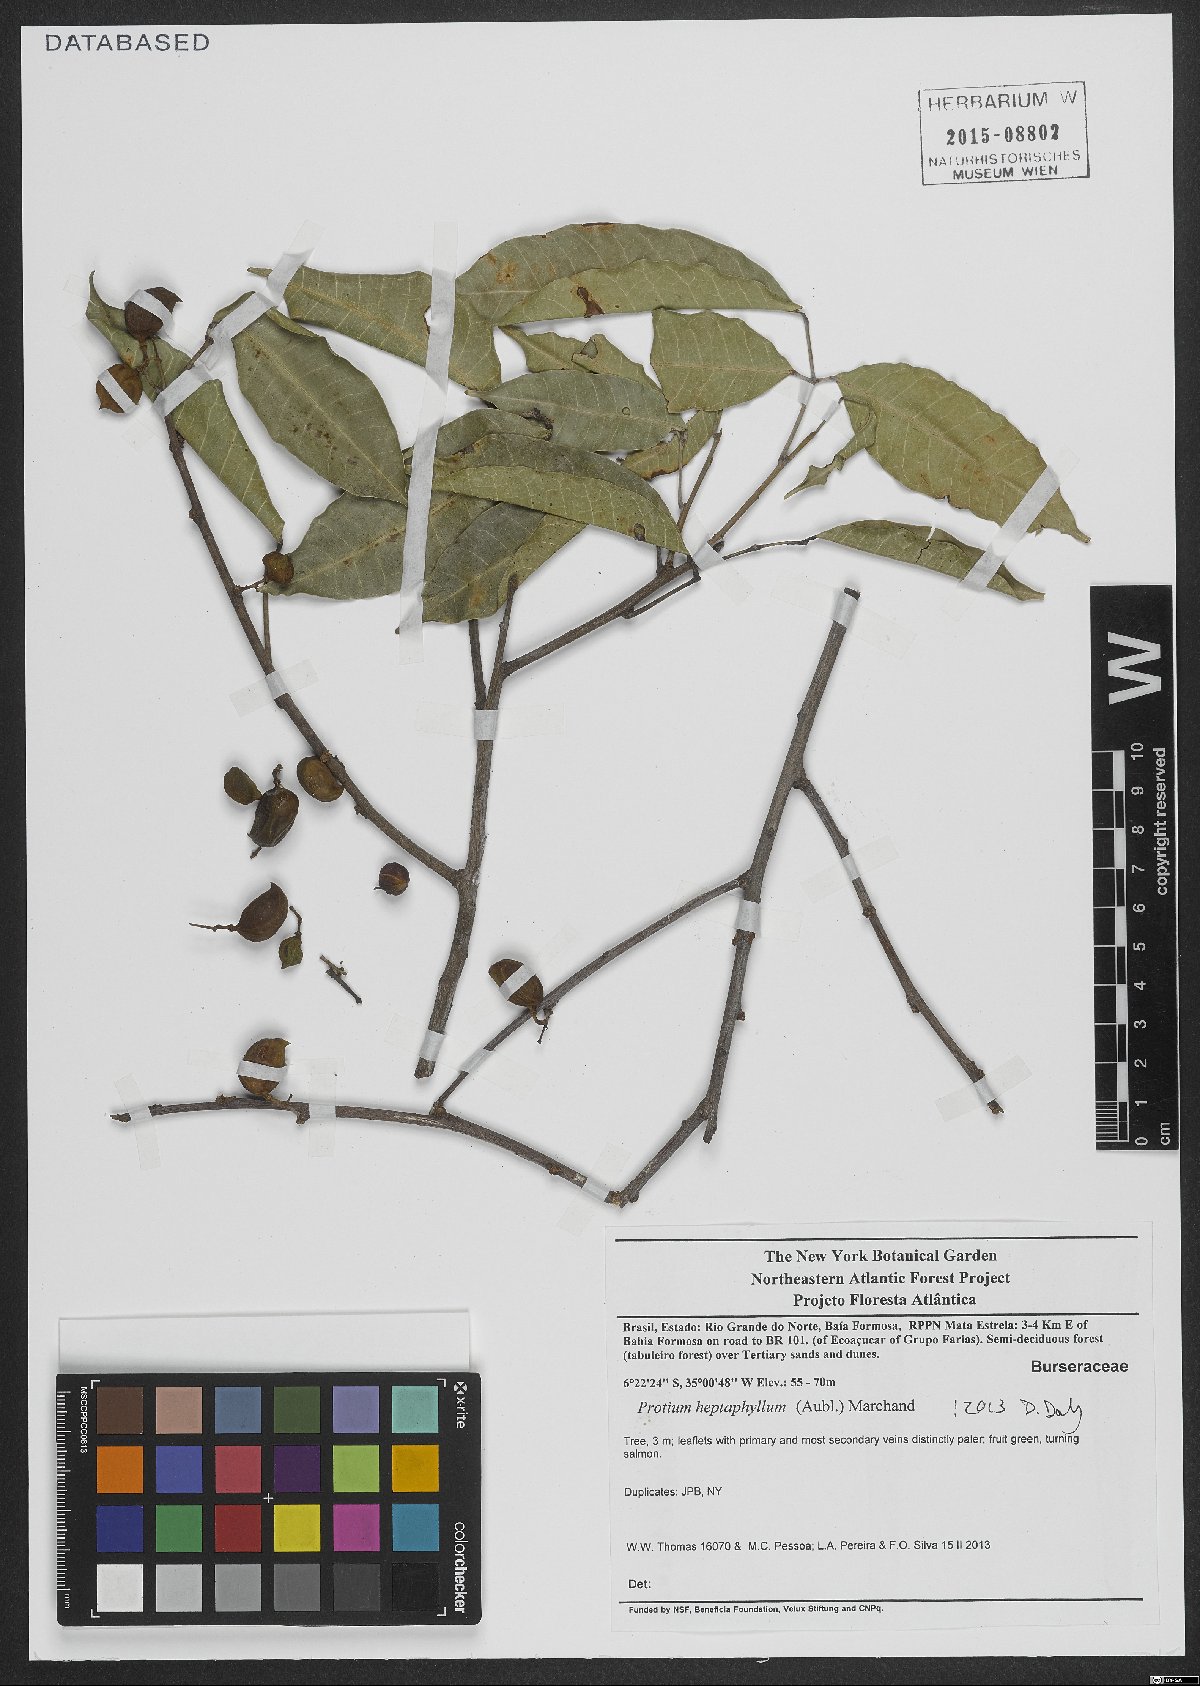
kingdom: Plantae
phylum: Tracheophyta
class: Magnoliopsida
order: Sapindales
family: Burseraceae
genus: Protium
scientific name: Protium heptaphyllum
